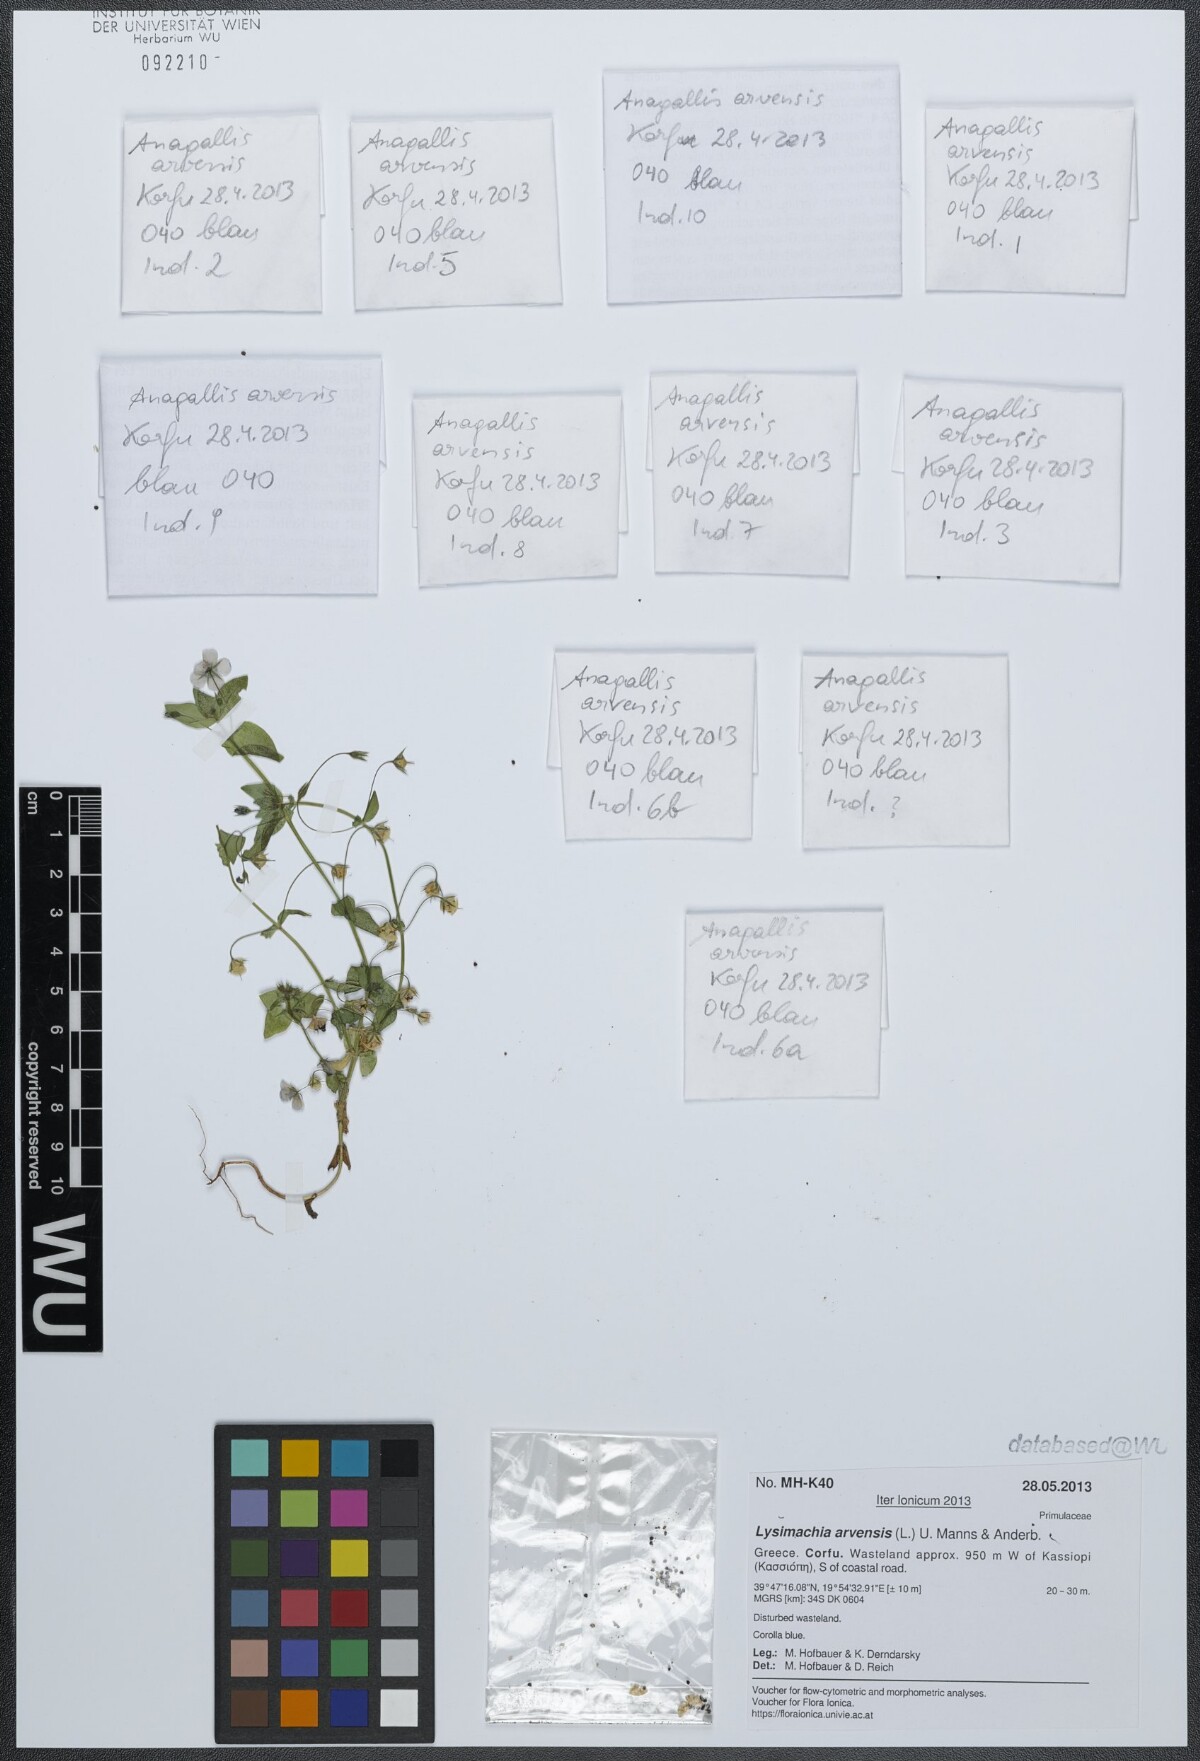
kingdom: Plantae
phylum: Tracheophyta
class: Magnoliopsida
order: Ericales
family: Primulaceae
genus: Lysimachia
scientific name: Lysimachia arvensis
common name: Scarlet pimpernel
